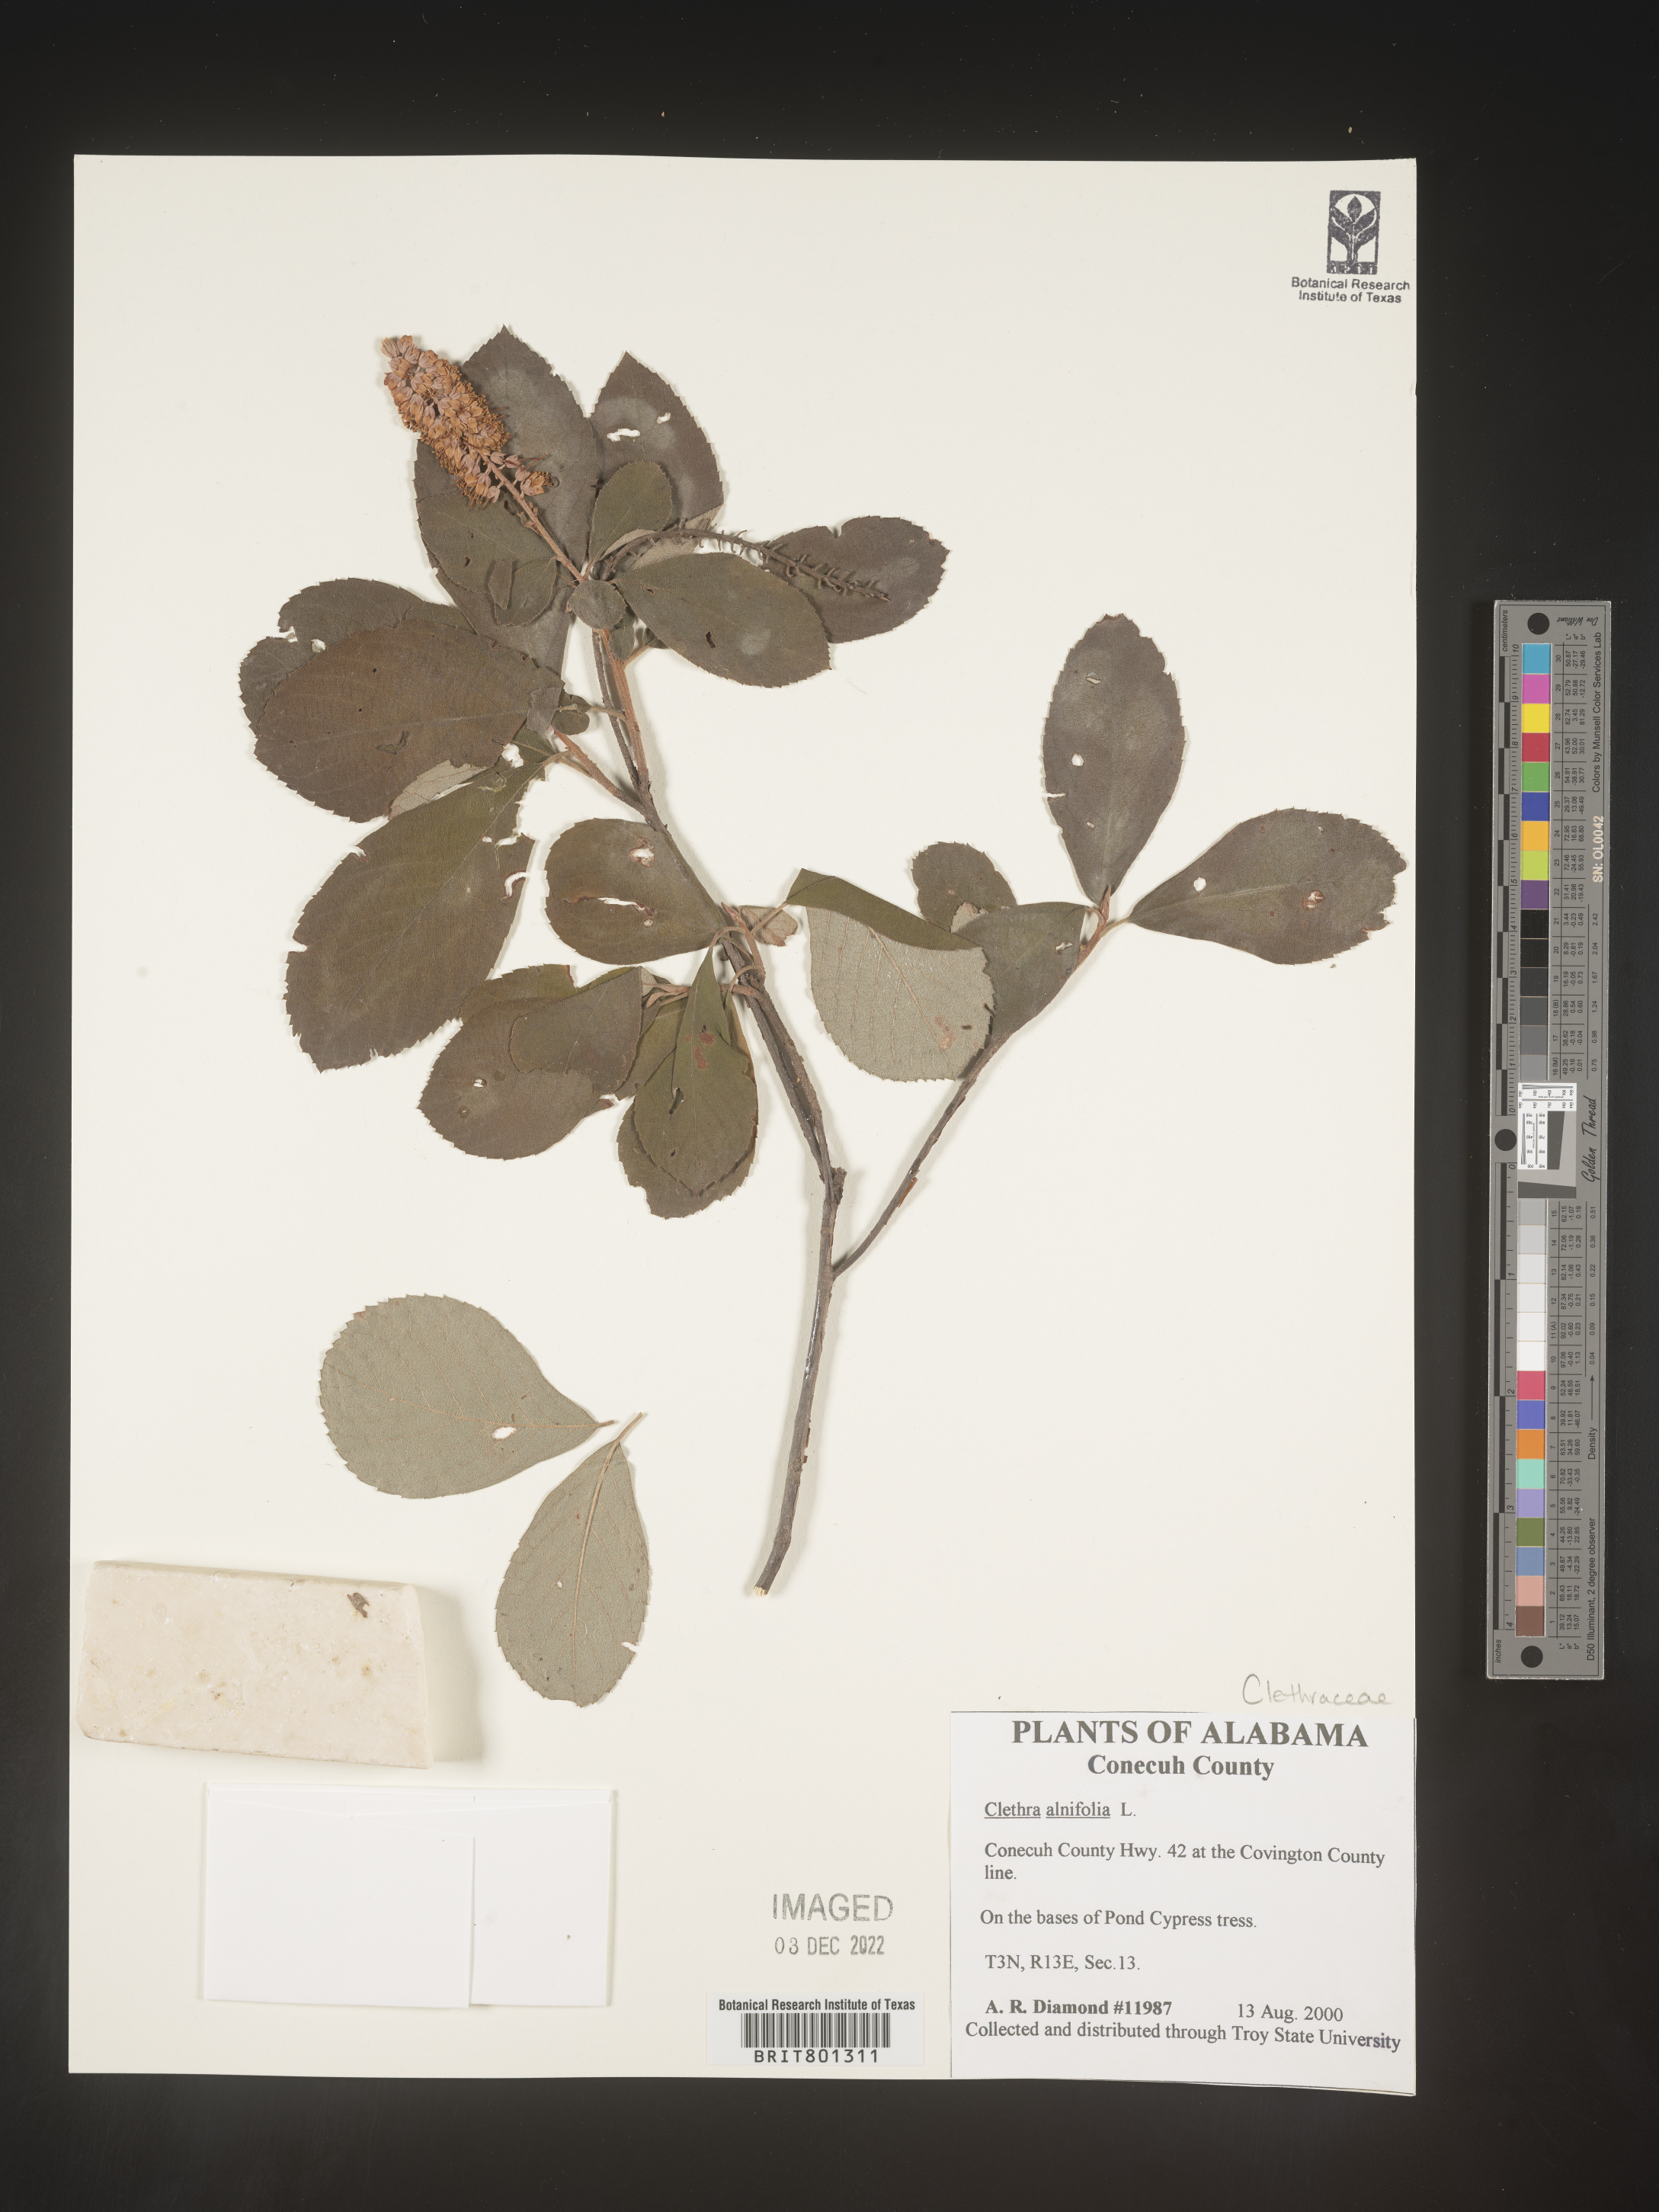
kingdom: Plantae
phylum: Tracheophyta
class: Magnoliopsida
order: Ericales
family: Clethraceae
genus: Clethra
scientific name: Clethra alnifolia
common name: Sweet pepperbush
